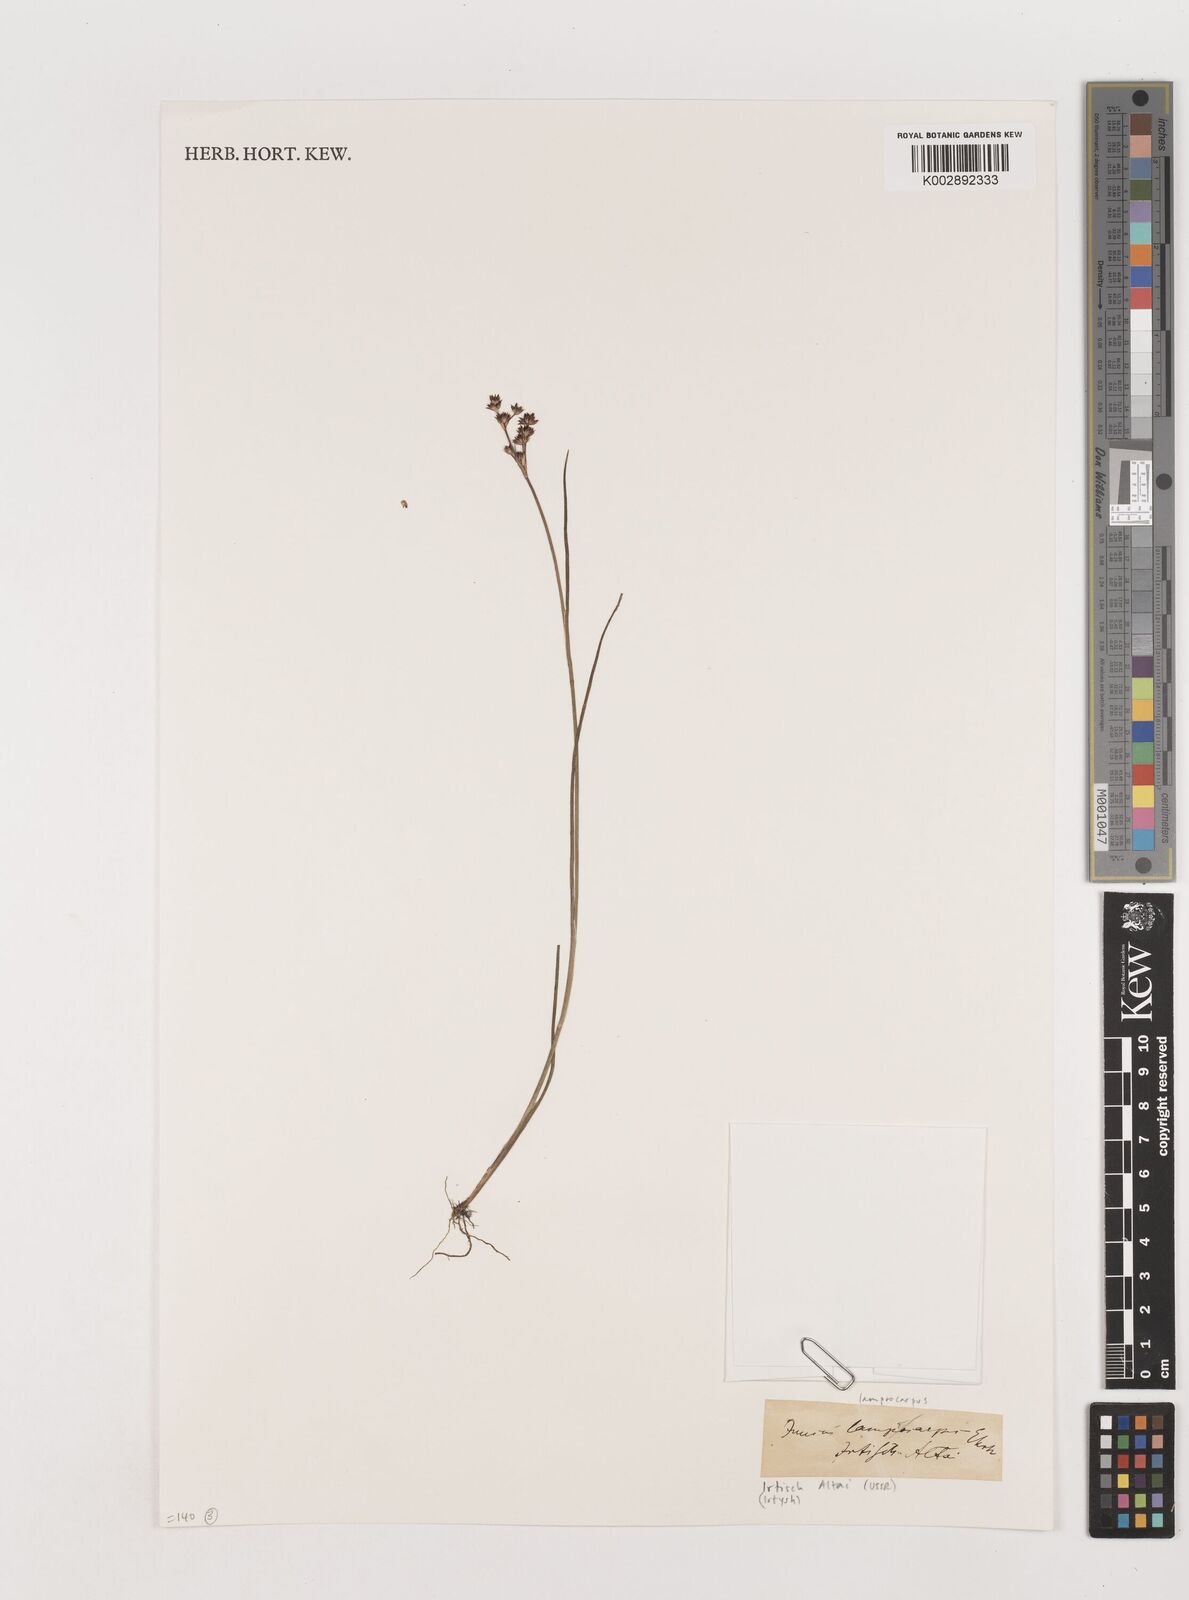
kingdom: Plantae
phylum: Tracheophyta
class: Liliopsida
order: Poales
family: Juncaceae
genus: Juncus
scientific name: Juncus articulatus
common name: Jointed rush
